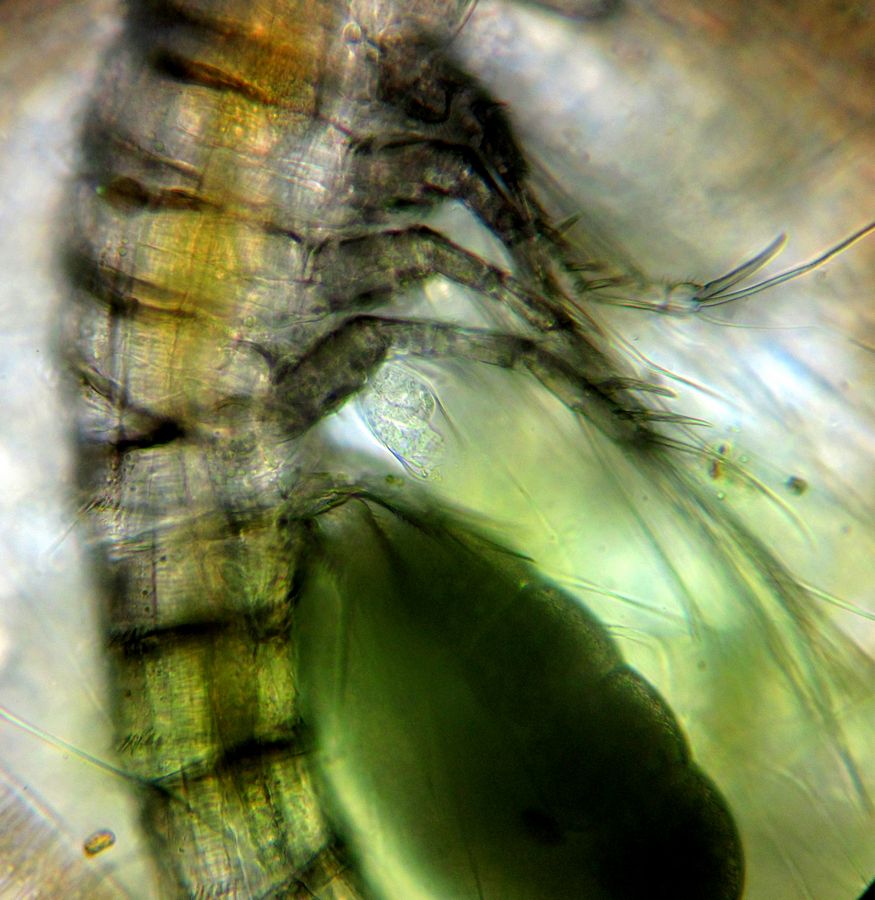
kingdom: Chromista
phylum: Ciliophora
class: Oligohymenophorea
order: Peritrichida
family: Vaginicolidae
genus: Cothurnia
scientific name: Cothurnia annulata
